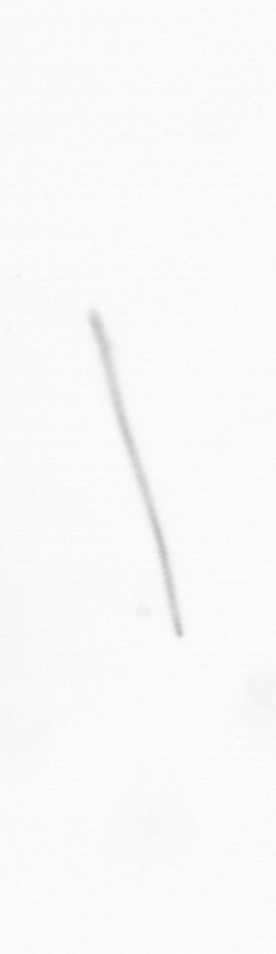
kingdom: Chromista
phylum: Ochrophyta
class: Bacillariophyceae
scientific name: Bacillariophyceae
